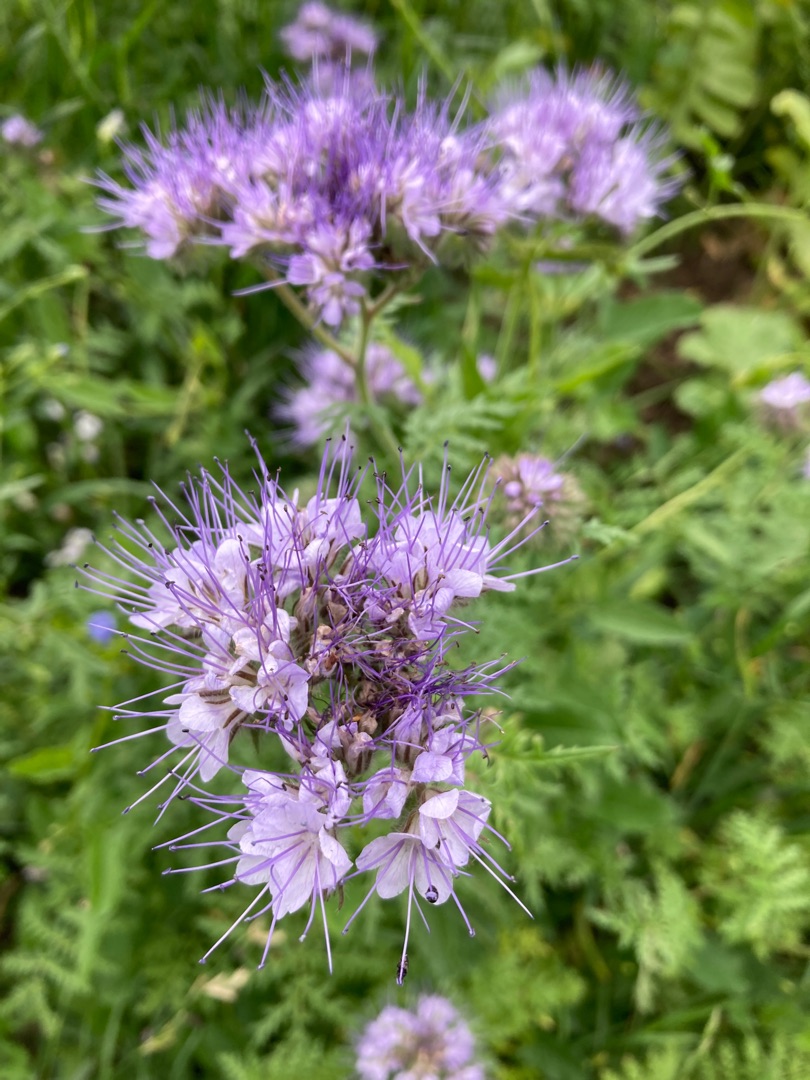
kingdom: Plantae
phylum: Tracheophyta
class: Magnoliopsida
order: Boraginales
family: Hydrophyllaceae
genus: Phacelia
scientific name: Phacelia tanacetifolia
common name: Honningurt
